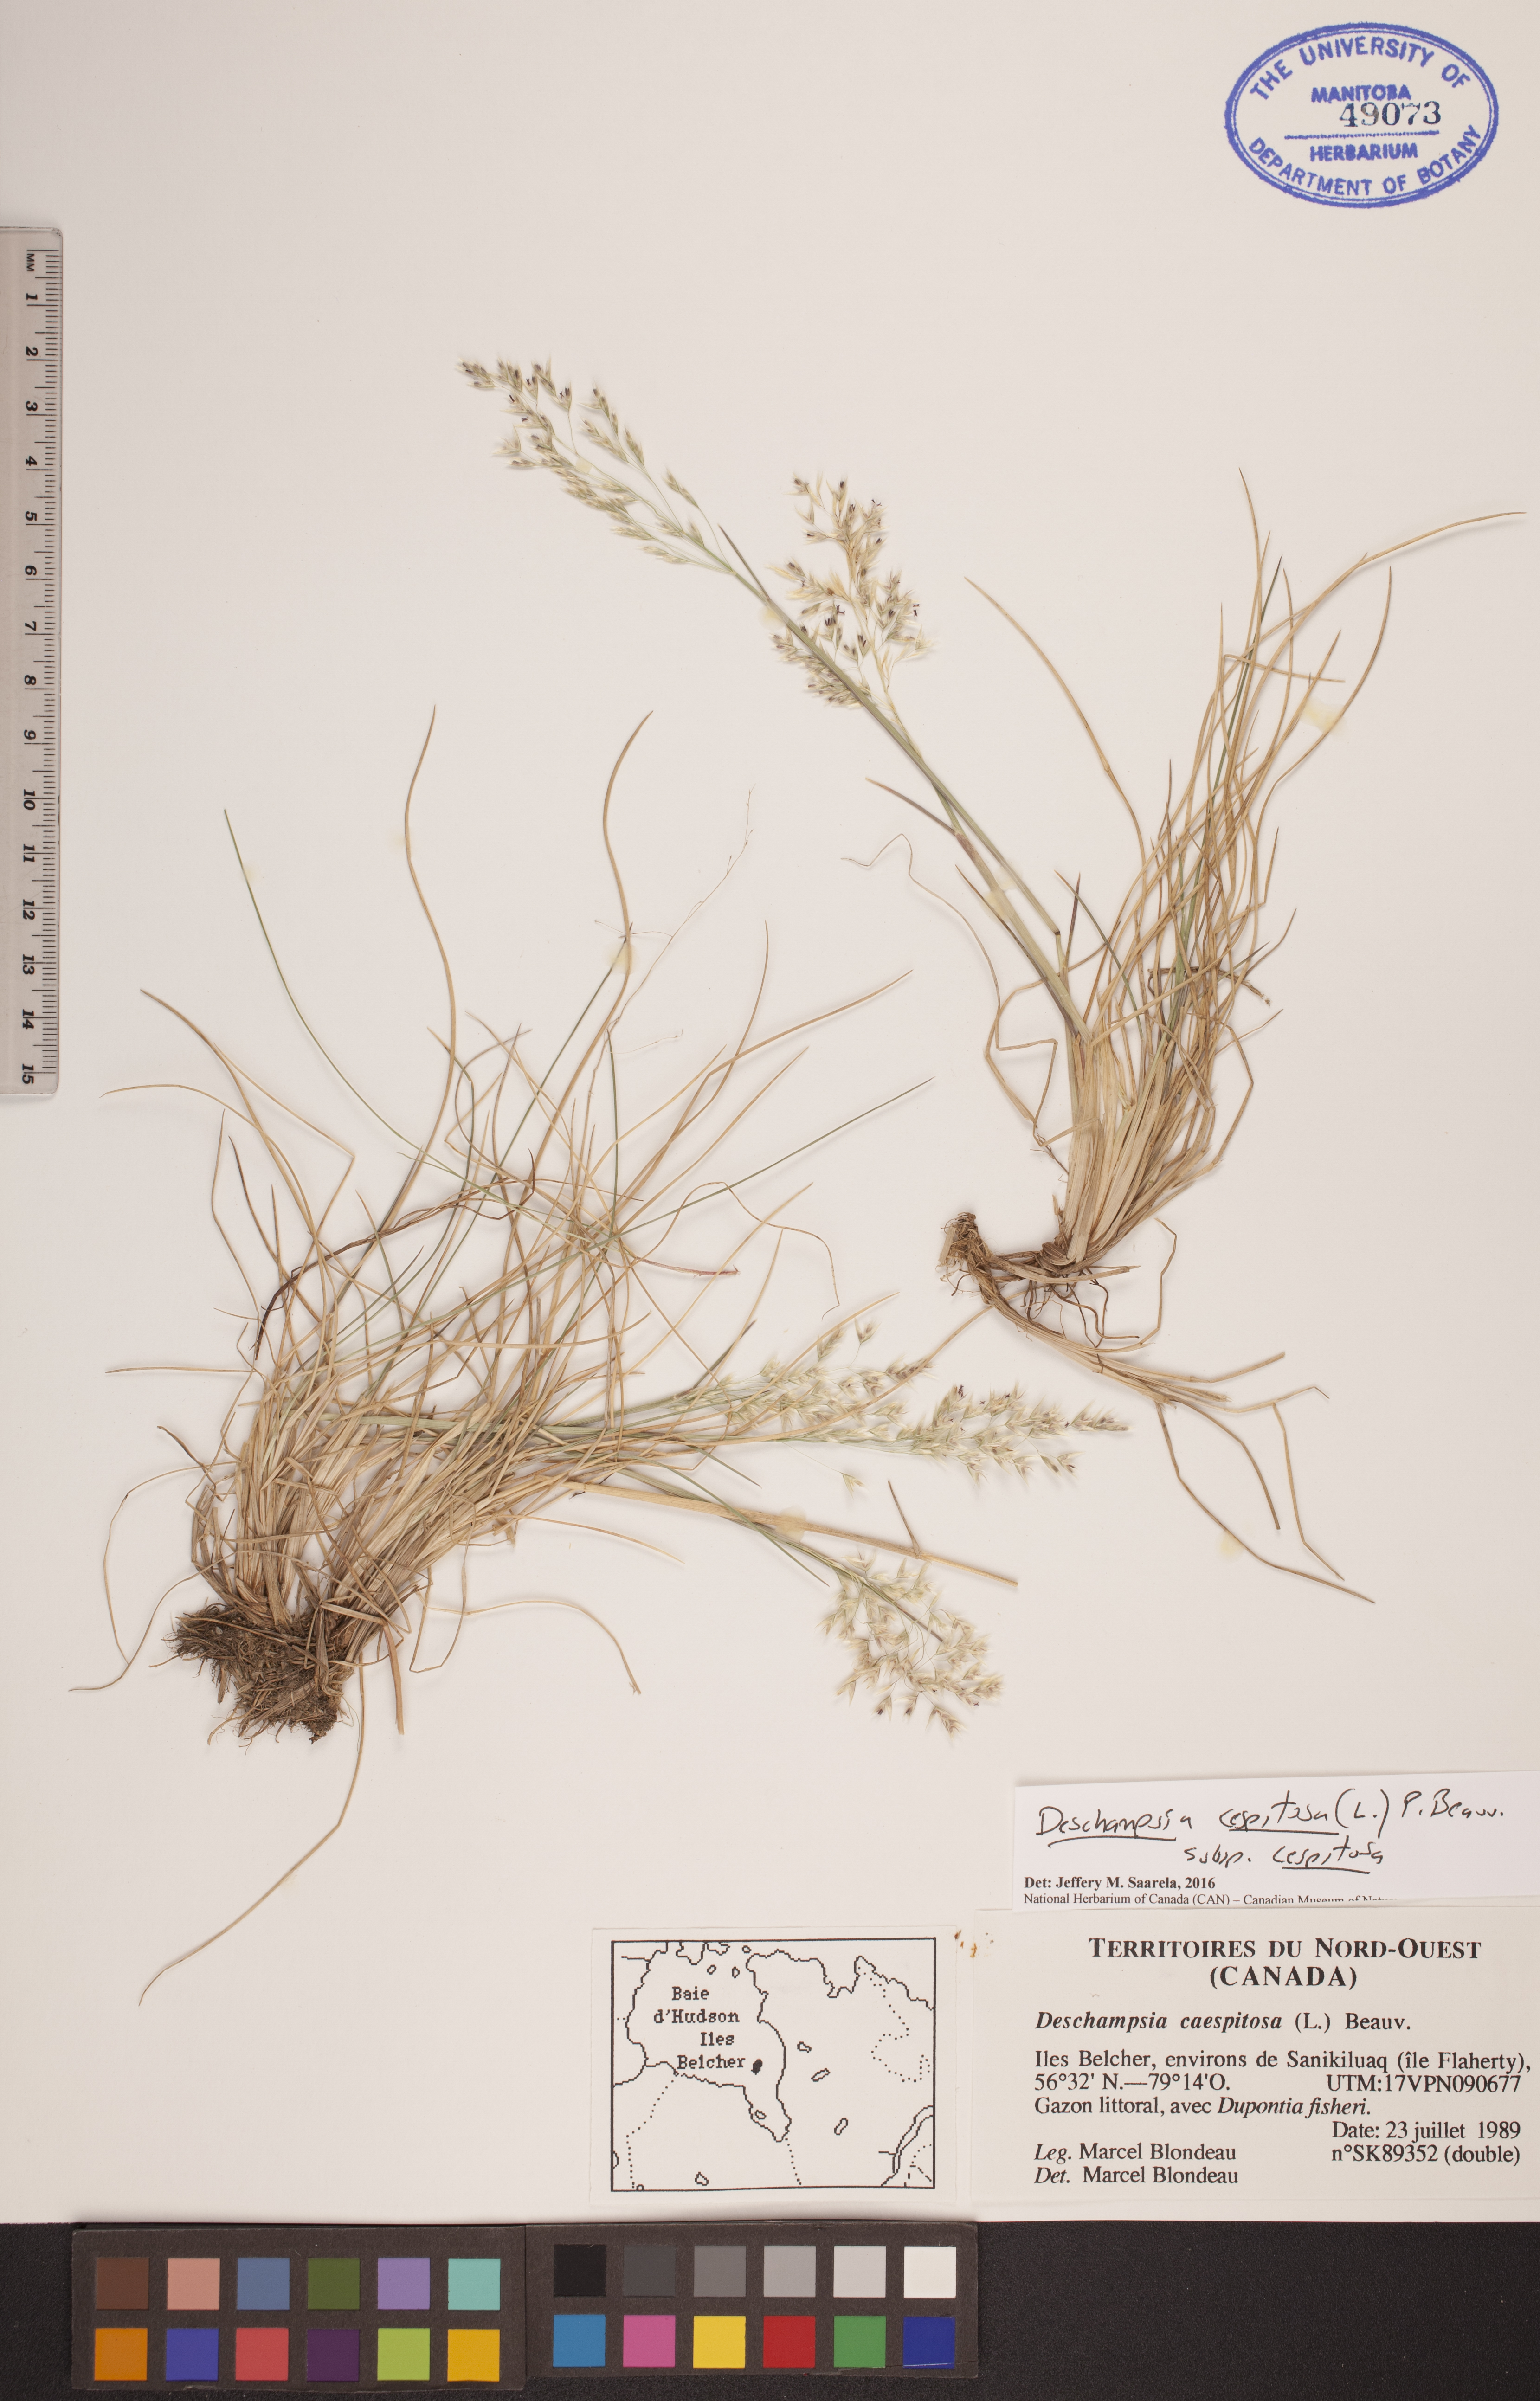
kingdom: Plantae
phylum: Tracheophyta
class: Liliopsida
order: Poales
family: Poaceae
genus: Deschampsia
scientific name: Deschampsia cespitosa
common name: Tufted hair-grass
